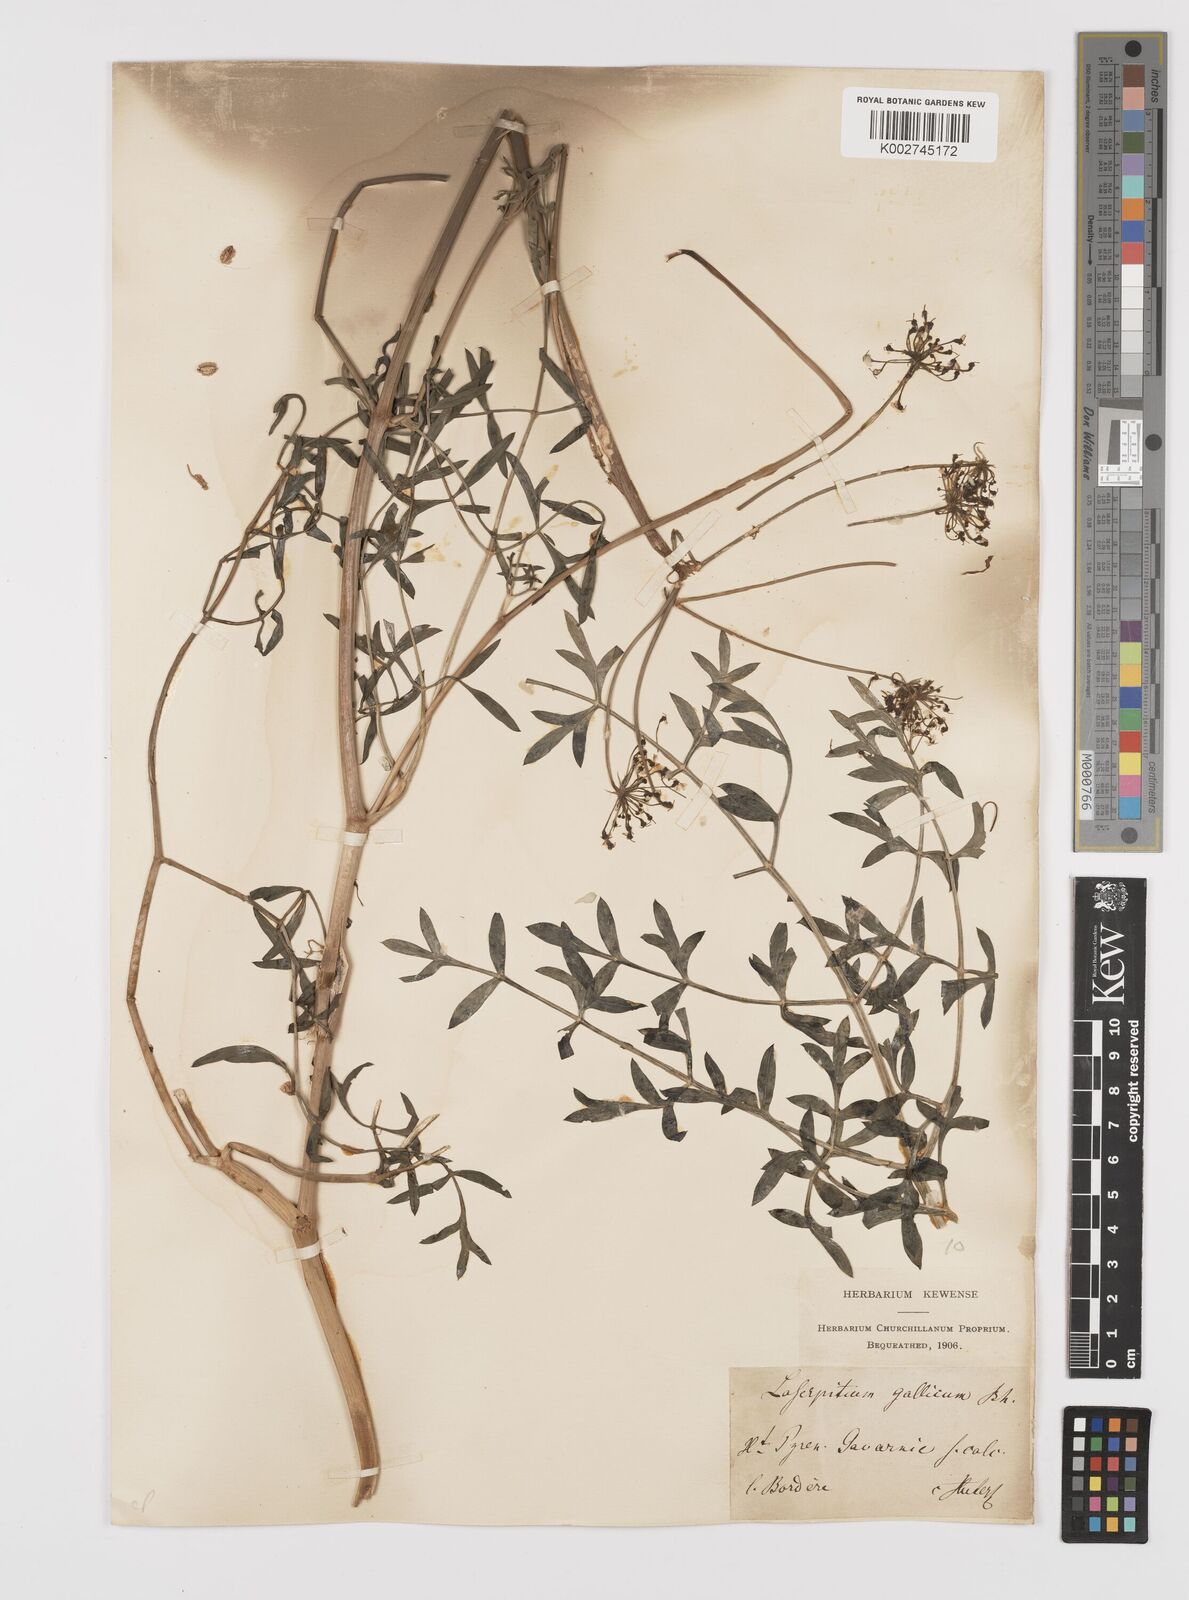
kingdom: Plantae
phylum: Tracheophyta
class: Magnoliopsida
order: Apiales
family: Apiaceae
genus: Laserpitium
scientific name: Laserpitium gallicum
